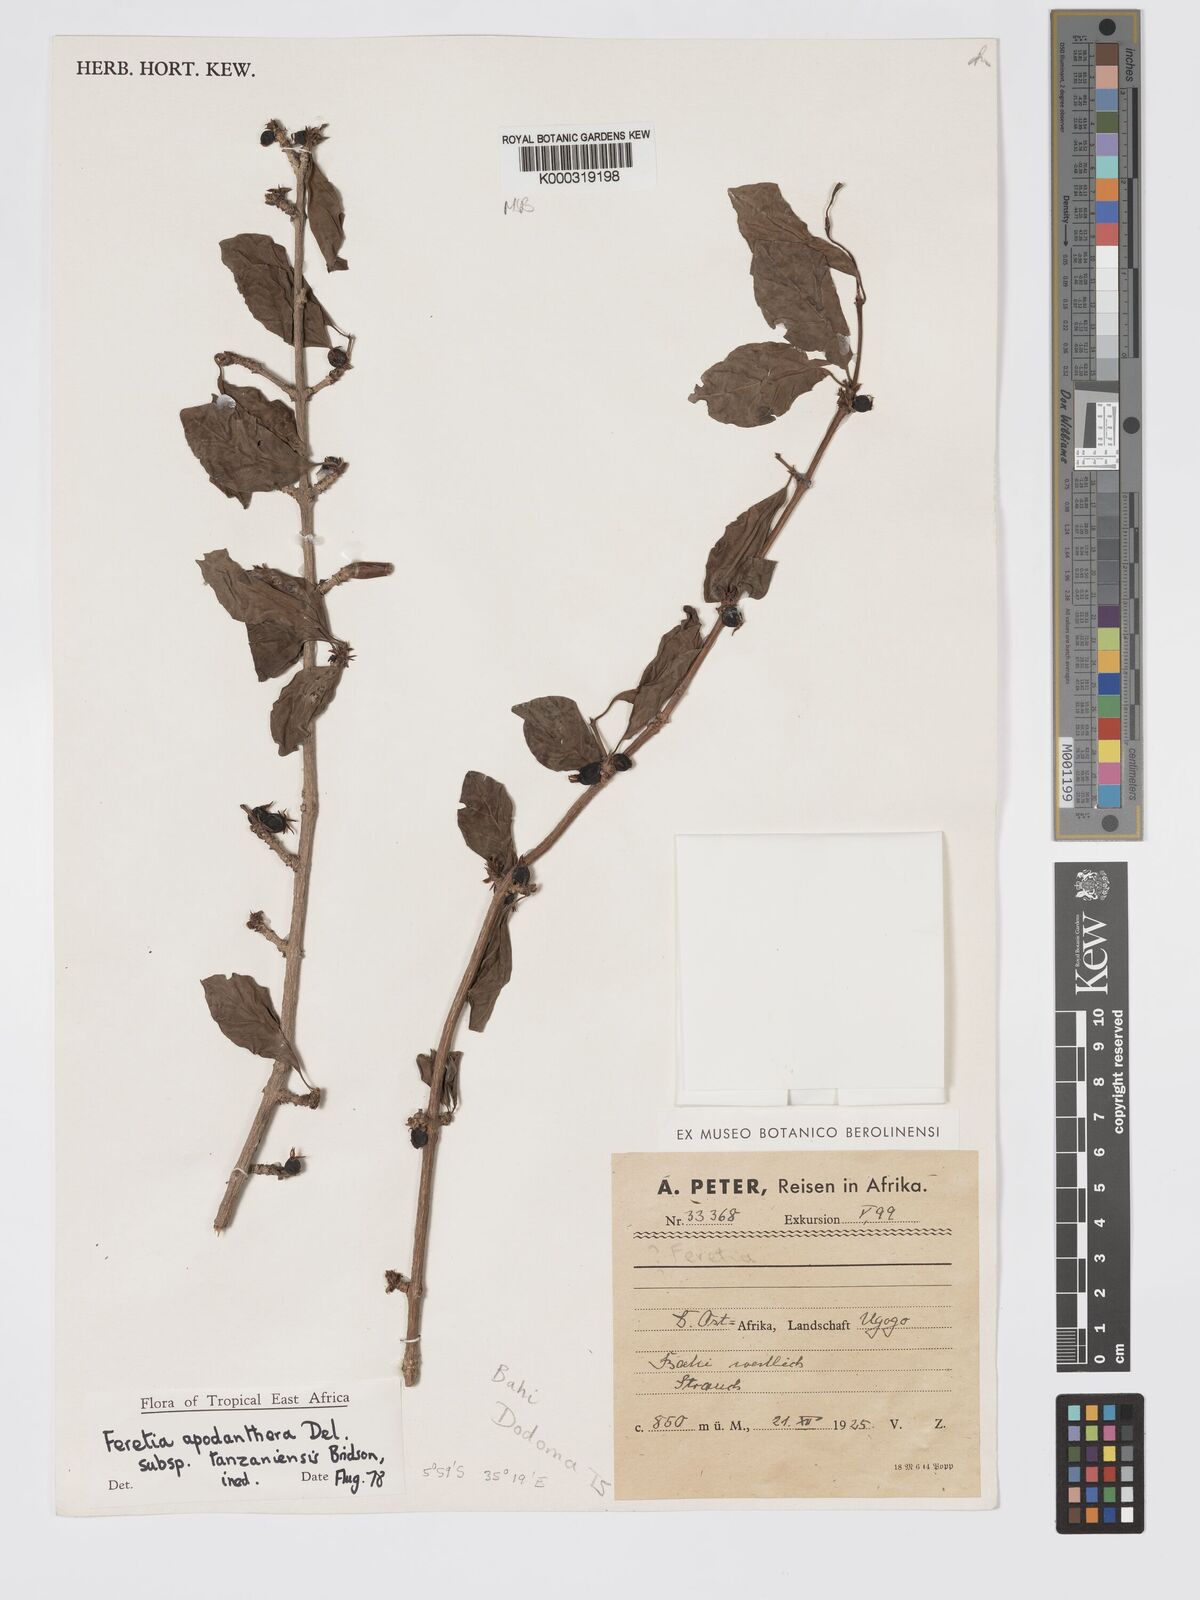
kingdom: Plantae
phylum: Tracheophyta
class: Magnoliopsida
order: Gentianales
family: Rubiaceae
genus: Feretia
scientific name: Feretia apodanthera
